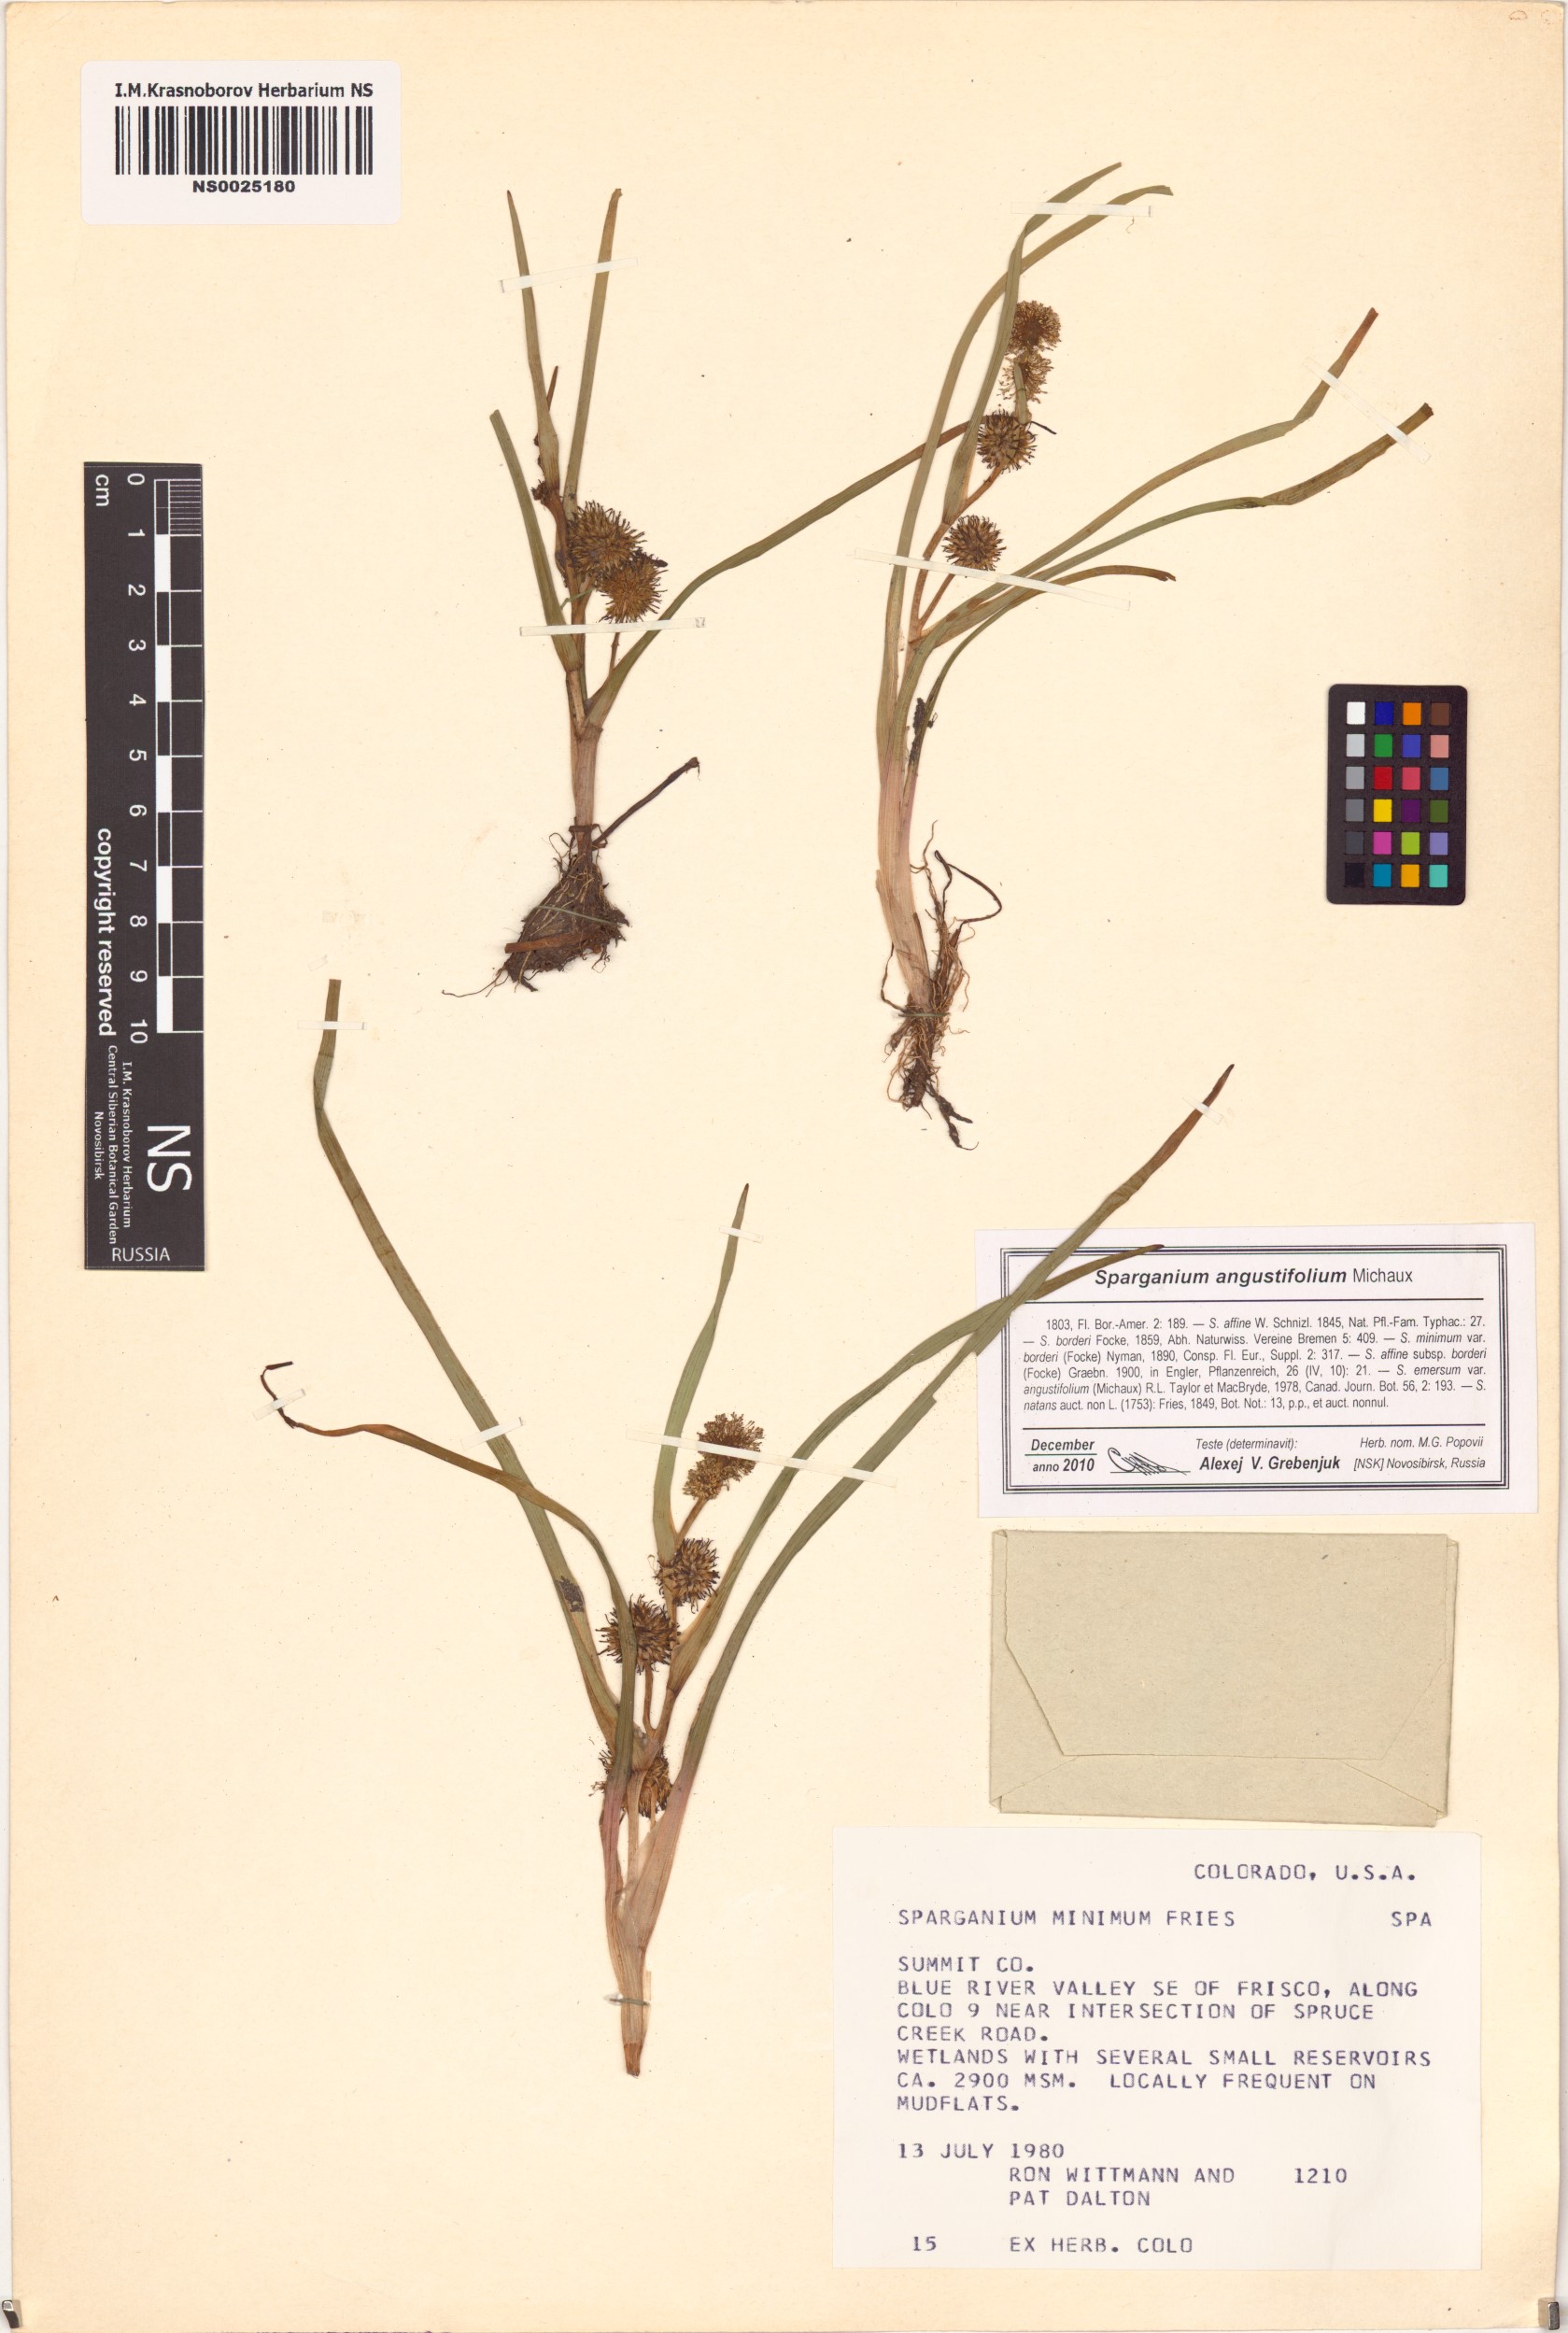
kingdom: Plantae
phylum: Tracheophyta
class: Liliopsida
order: Poales
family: Typhaceae
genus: Sparganium
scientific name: Sparganium angustifolium
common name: Floating bur-reed
